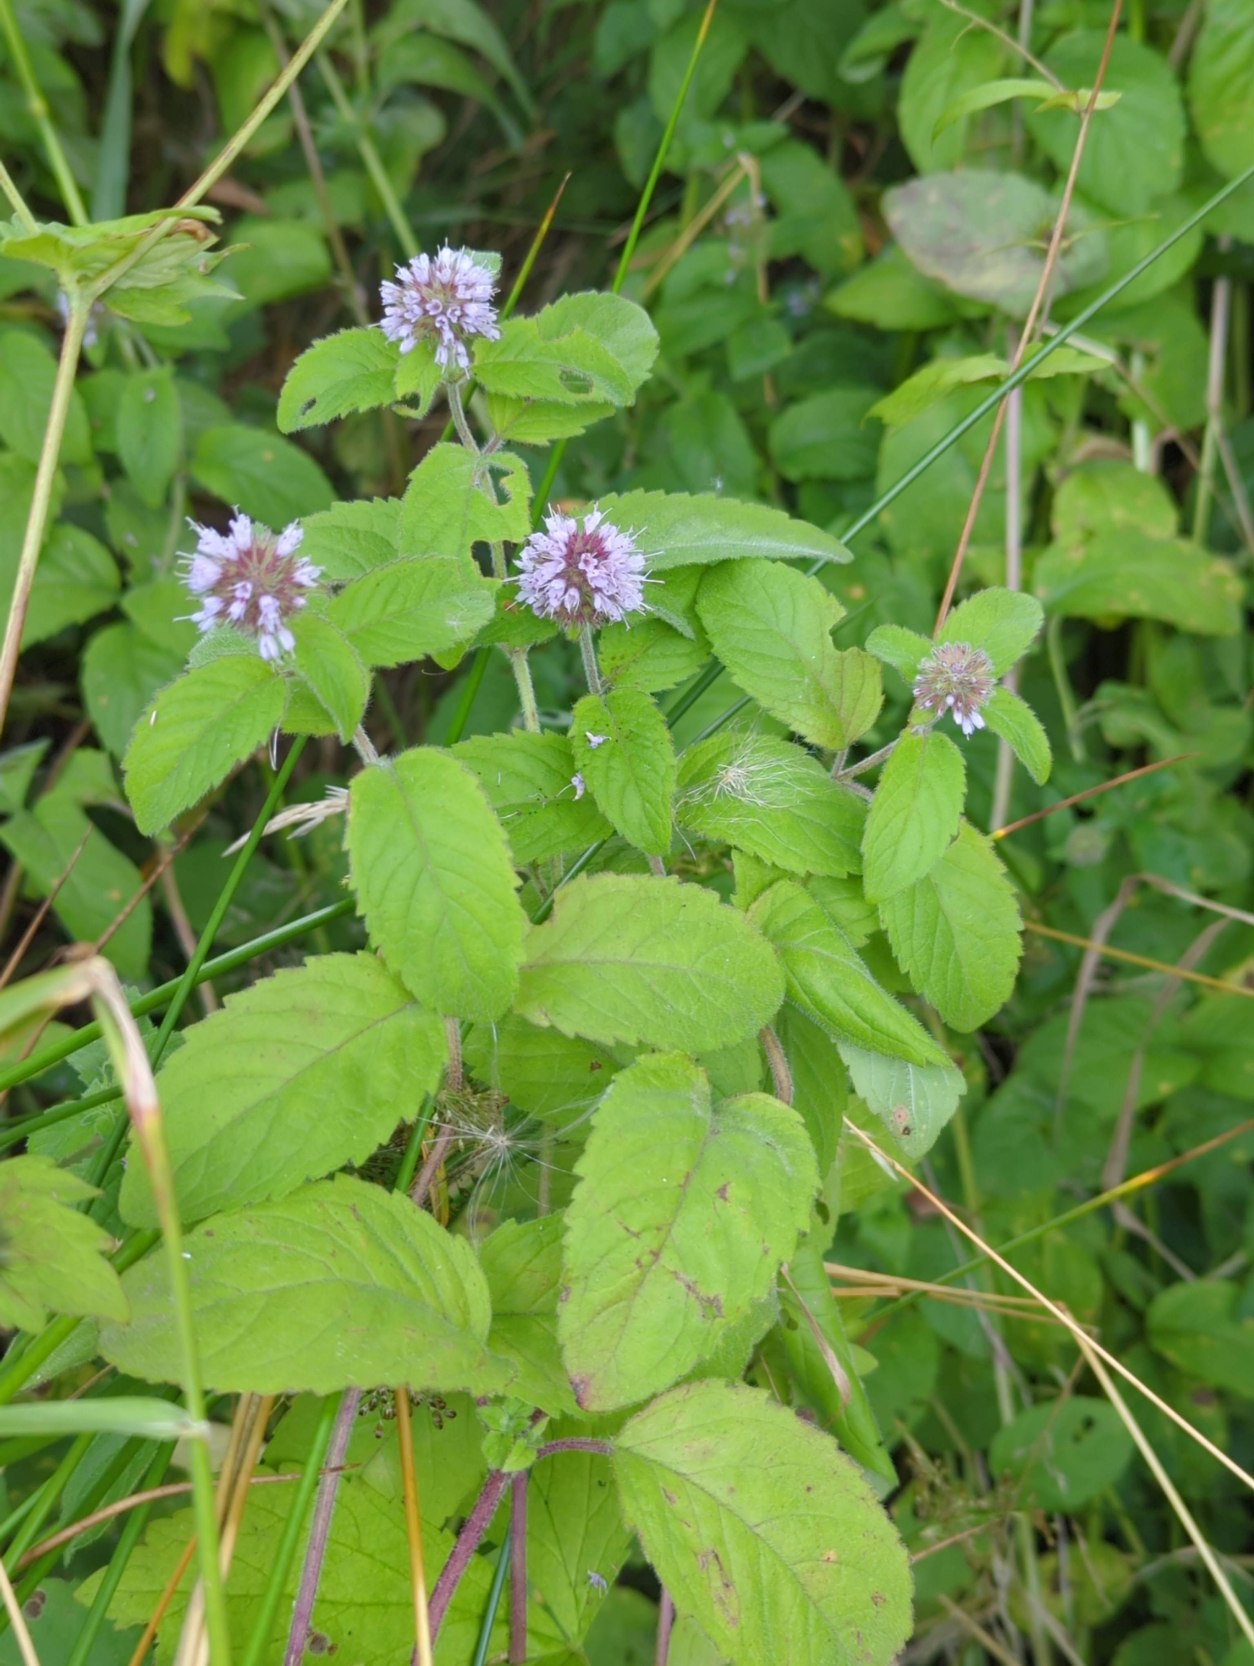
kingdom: Plantae
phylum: Tracheophyta
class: Magnoliopsida
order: Lamiales
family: Lamiaceae
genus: Mentha
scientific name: Mentha aquatica
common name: Vand-mynte
